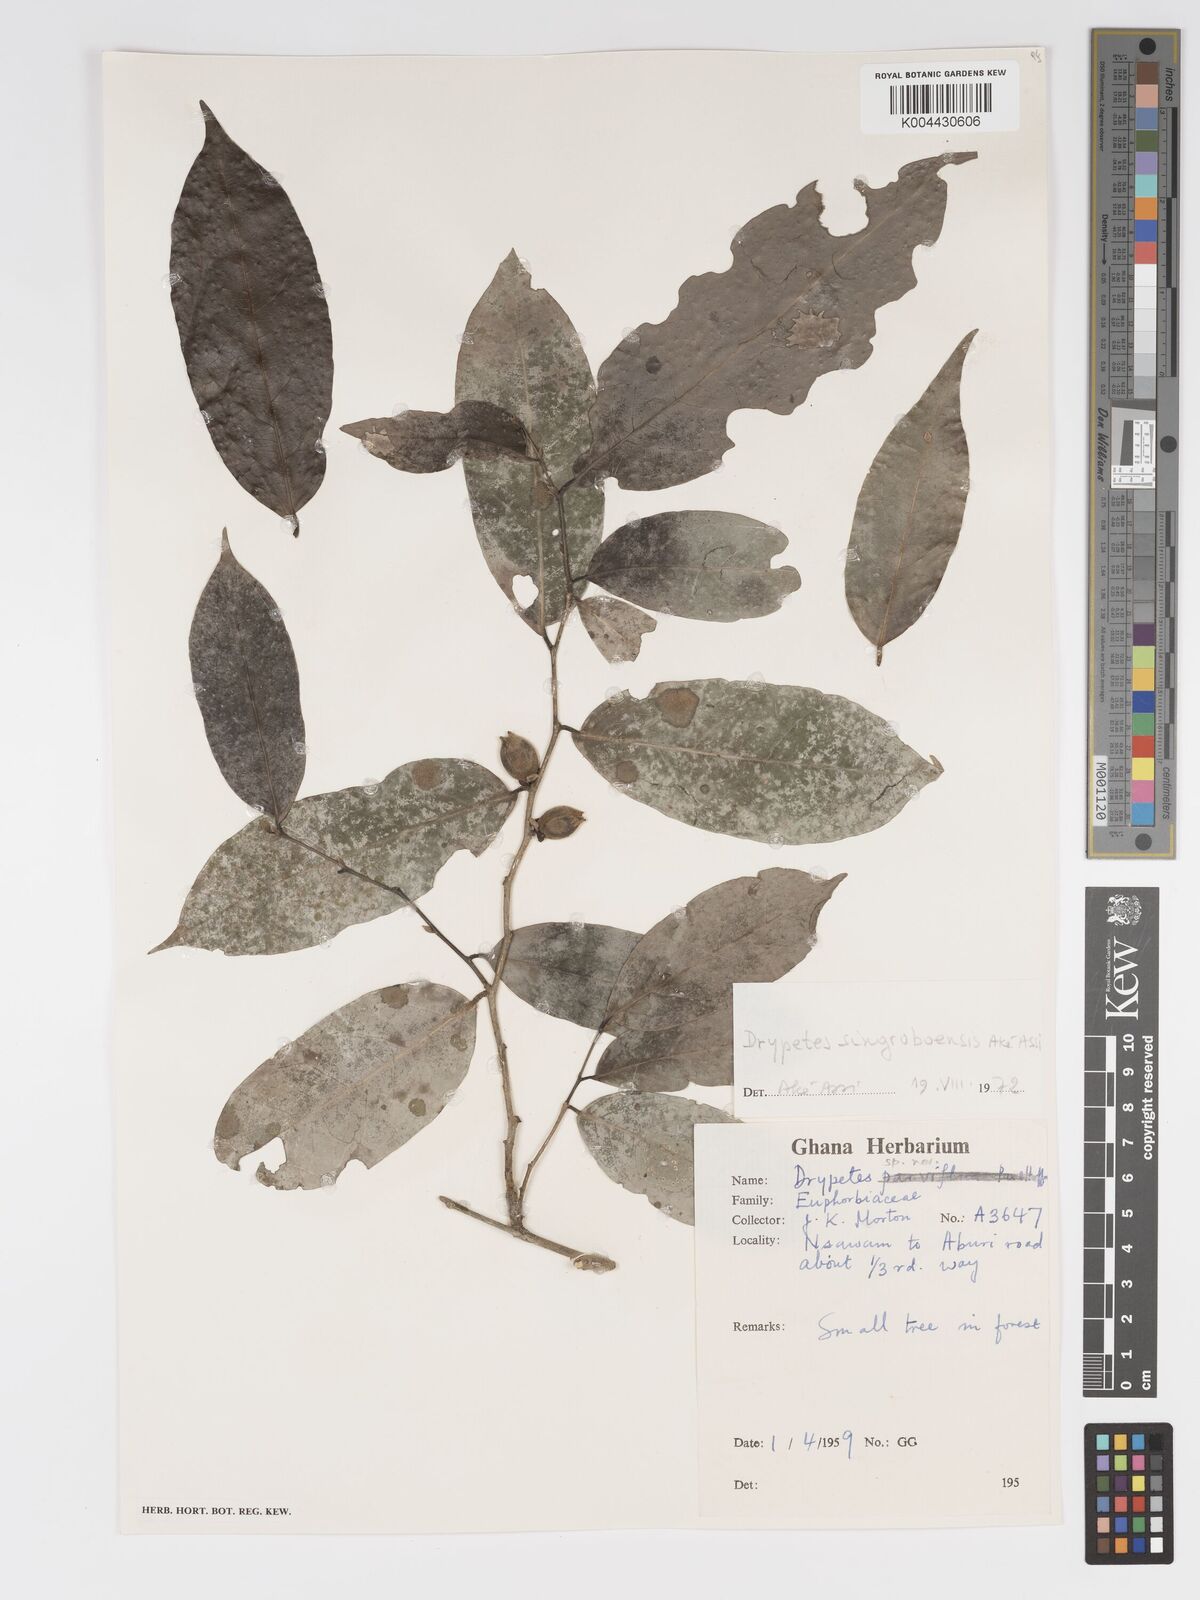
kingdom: Plantae
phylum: Tracheophyta
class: Magnoliopsida
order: Malpighiales
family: Putranjivaceae
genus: Drypetes
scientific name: Drypetes singroboensis
